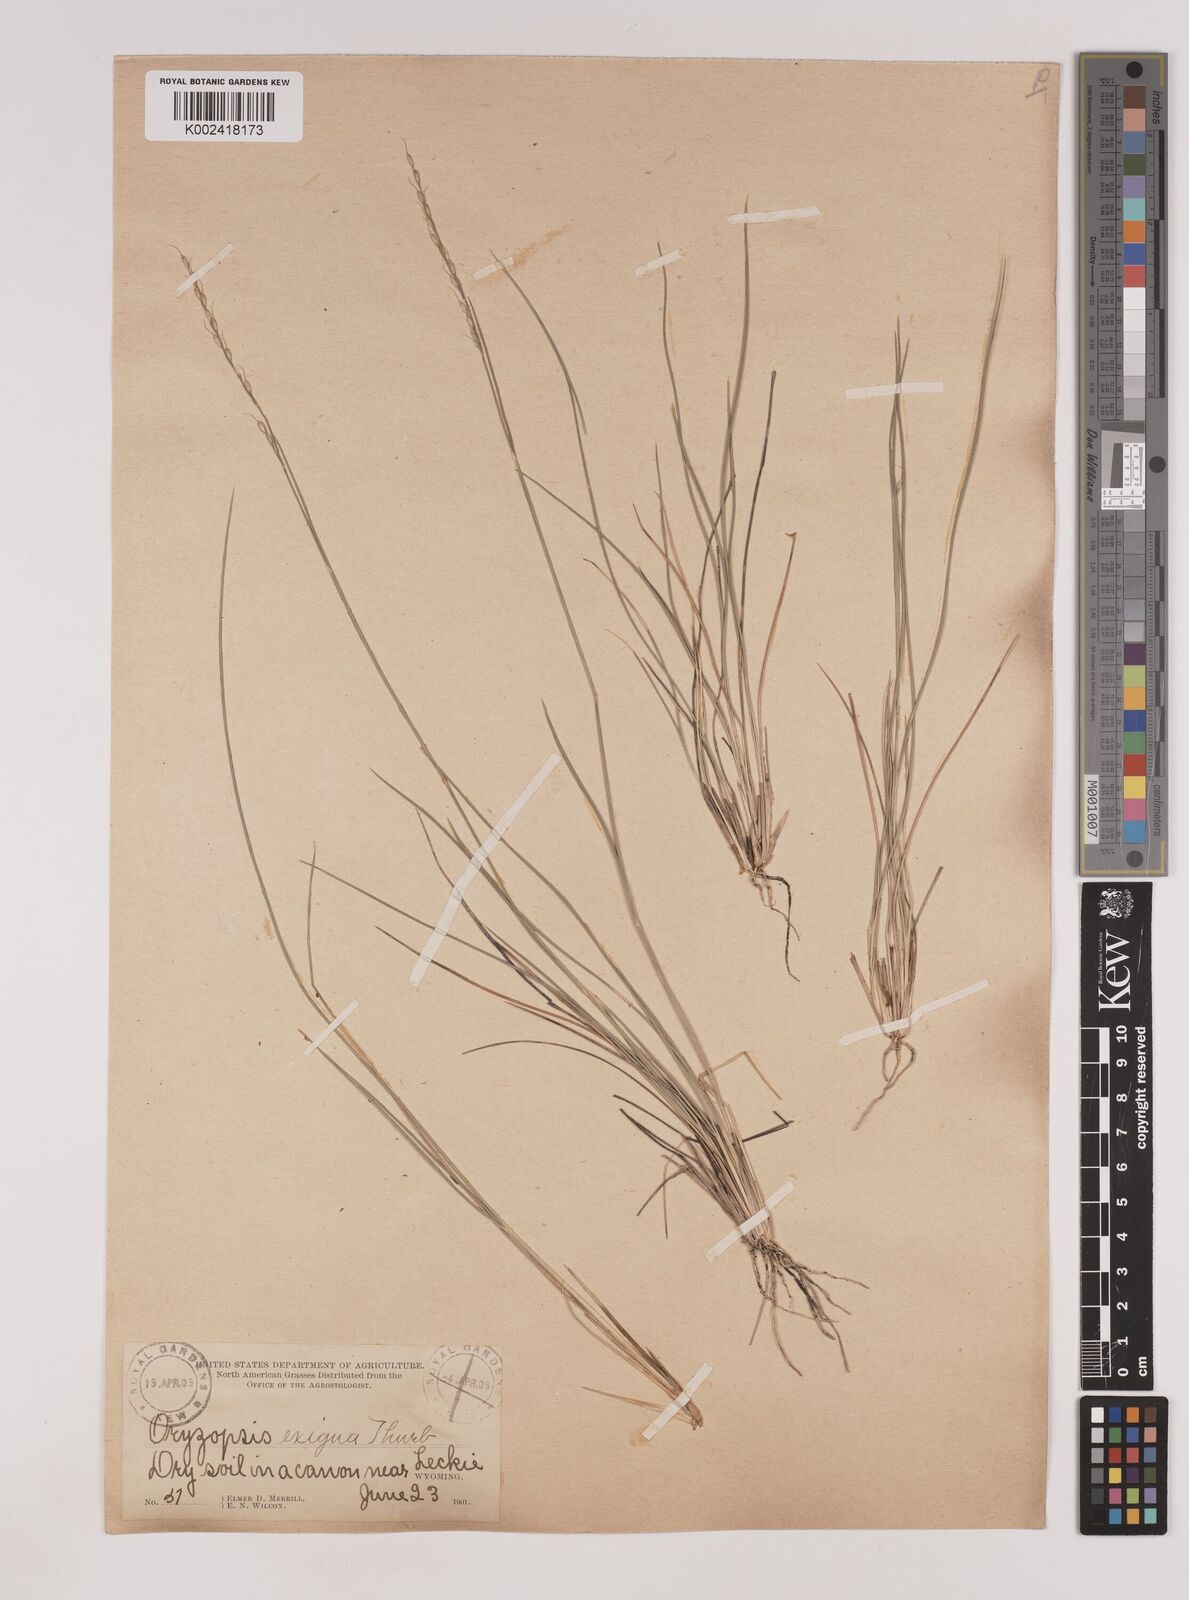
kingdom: Plantae
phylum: Tracheophyta
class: Liliopsida
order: Poales
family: Poaceae
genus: Piptatheropsis
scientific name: Piptatheropsis exigua
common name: Little mountain ricegrass
